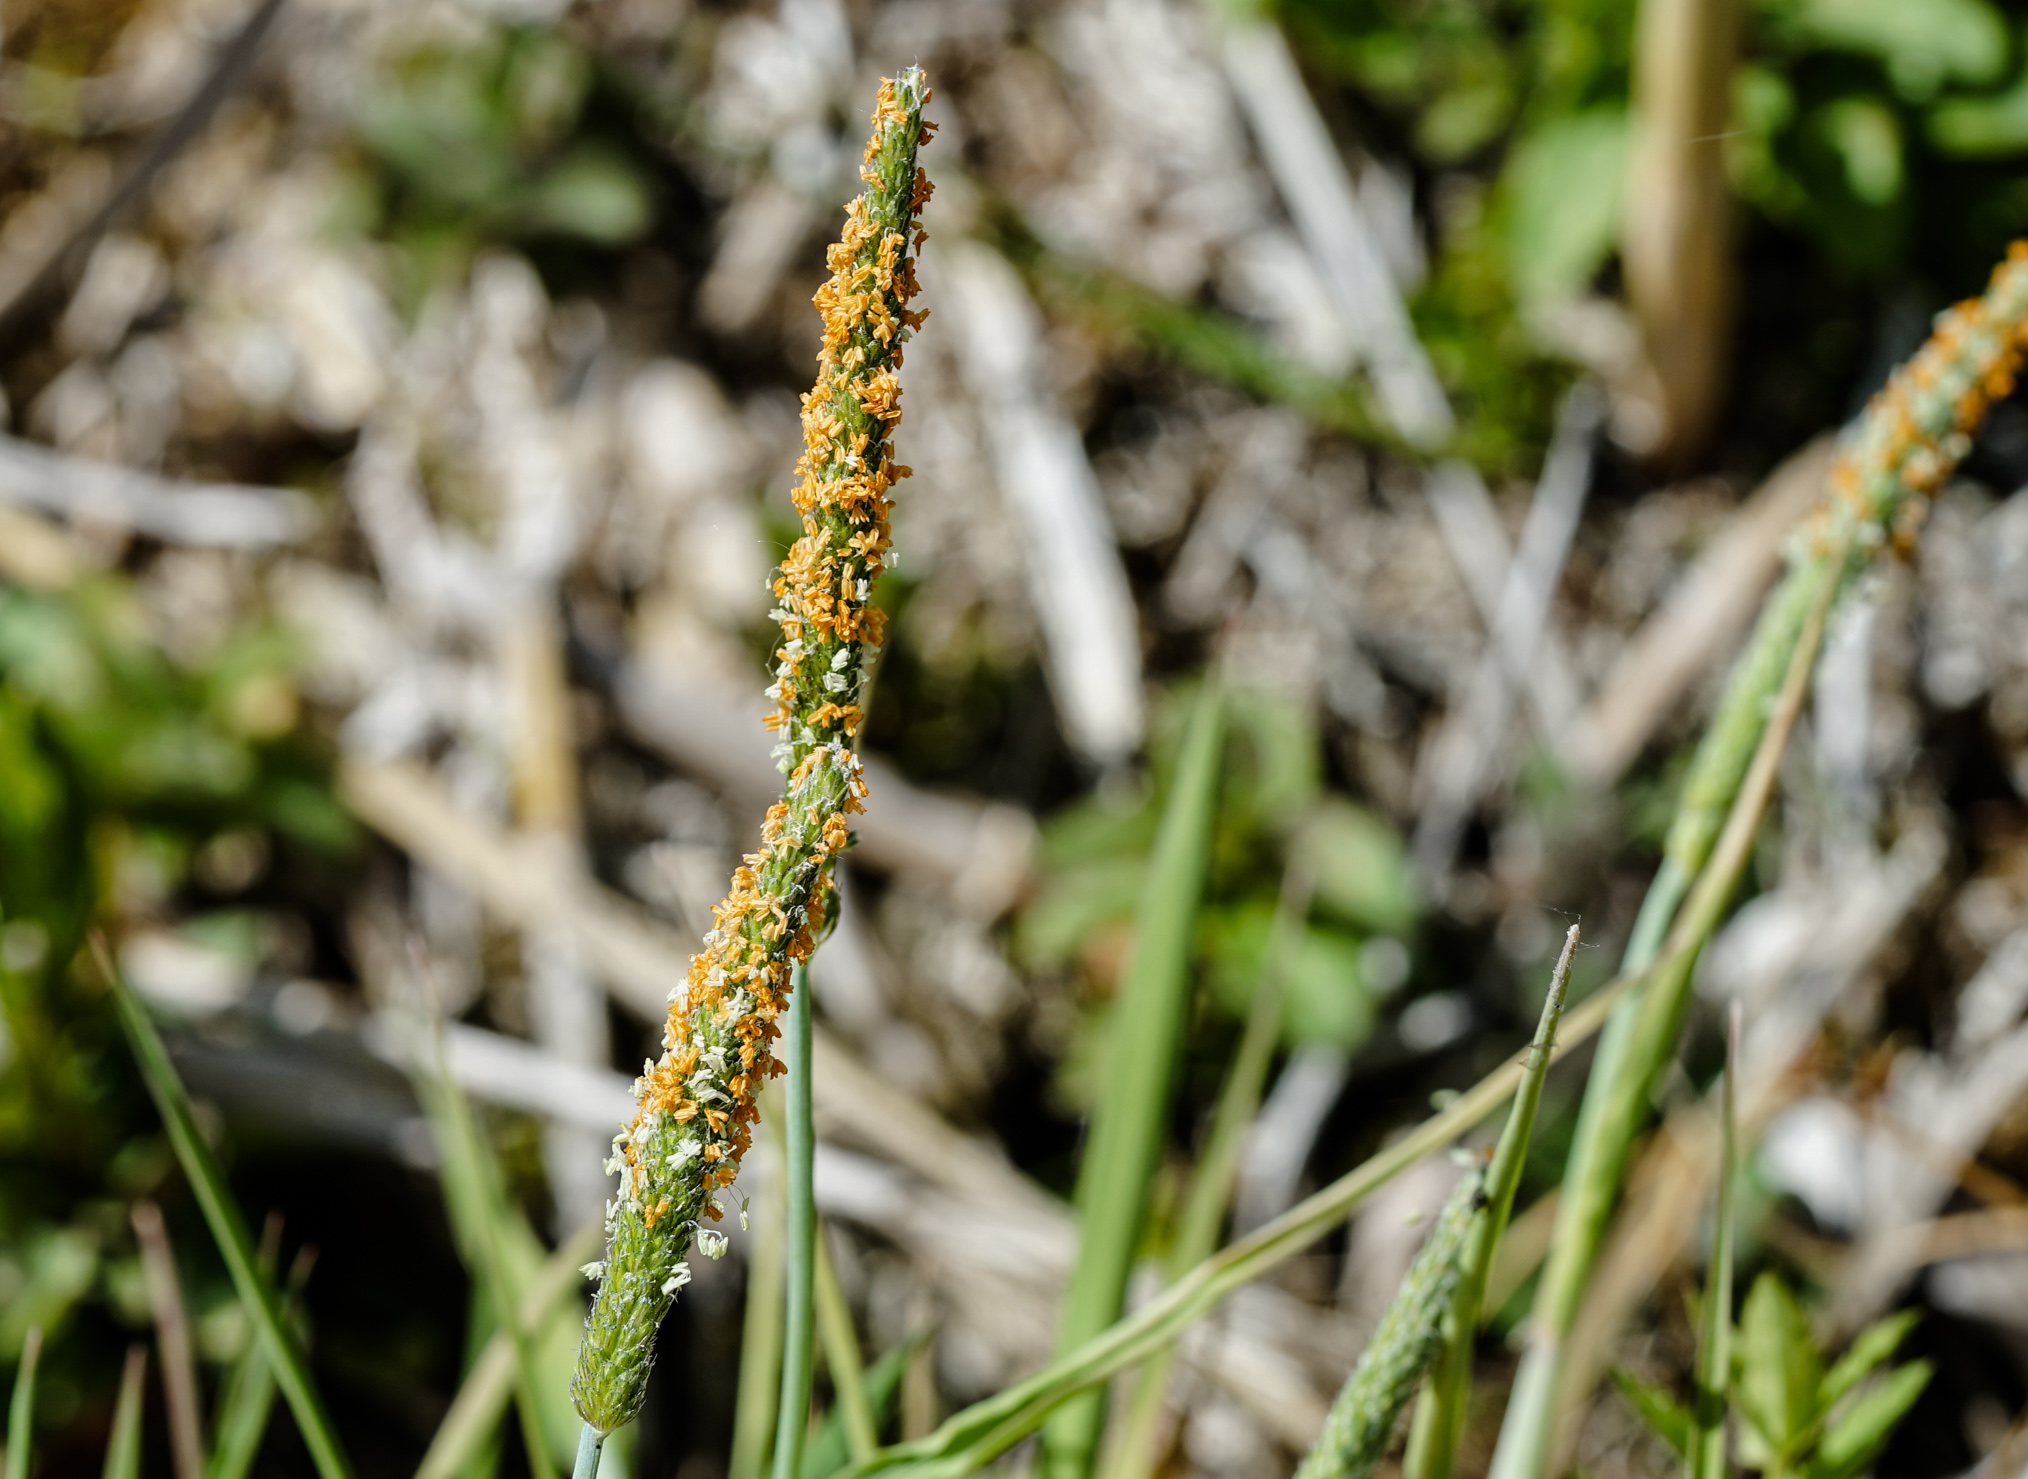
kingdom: Plantae
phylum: Tracheophyta
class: Liliopsida
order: Poales
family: Poaceae
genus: Alopecurus
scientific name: Alopecurus geniculatus
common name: Water foxtail
